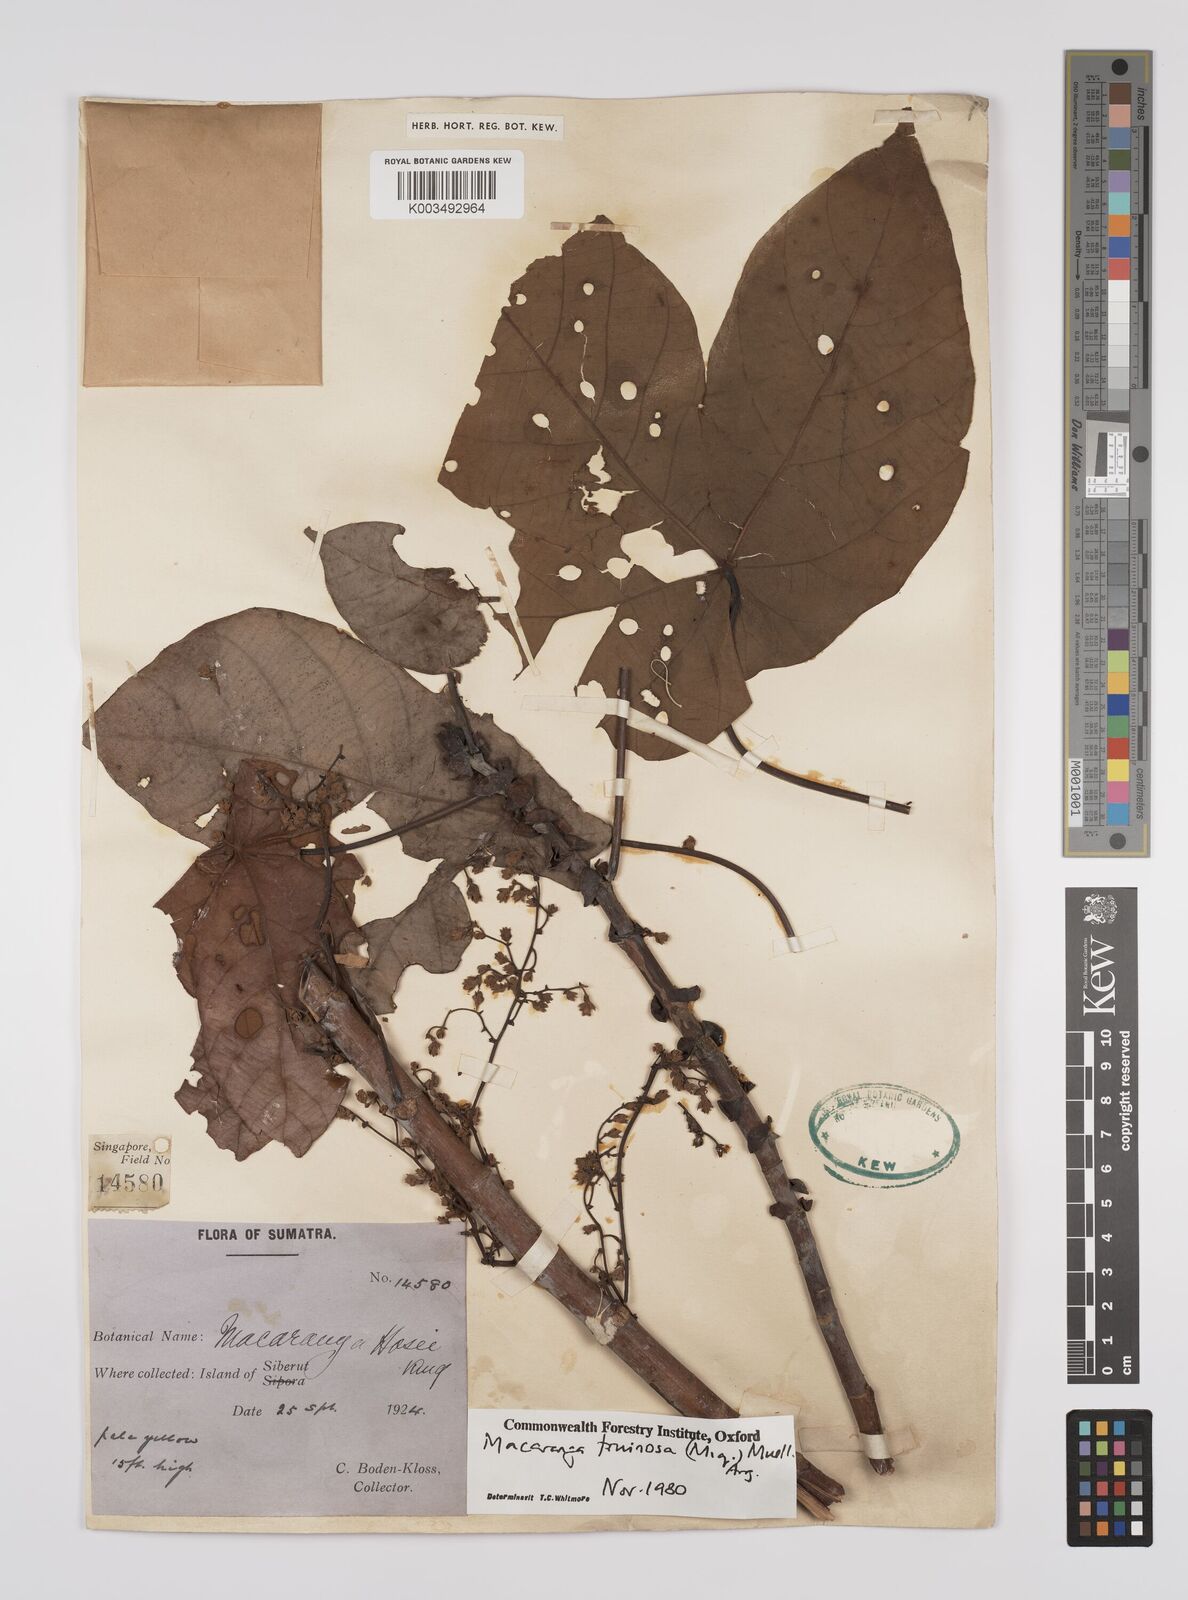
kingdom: Plantae
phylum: Tracheophyta
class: Magnoliopsida
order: Malpighiales
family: Euphorbiaceae
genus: Macaranga
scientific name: Macaranga pruinosa
